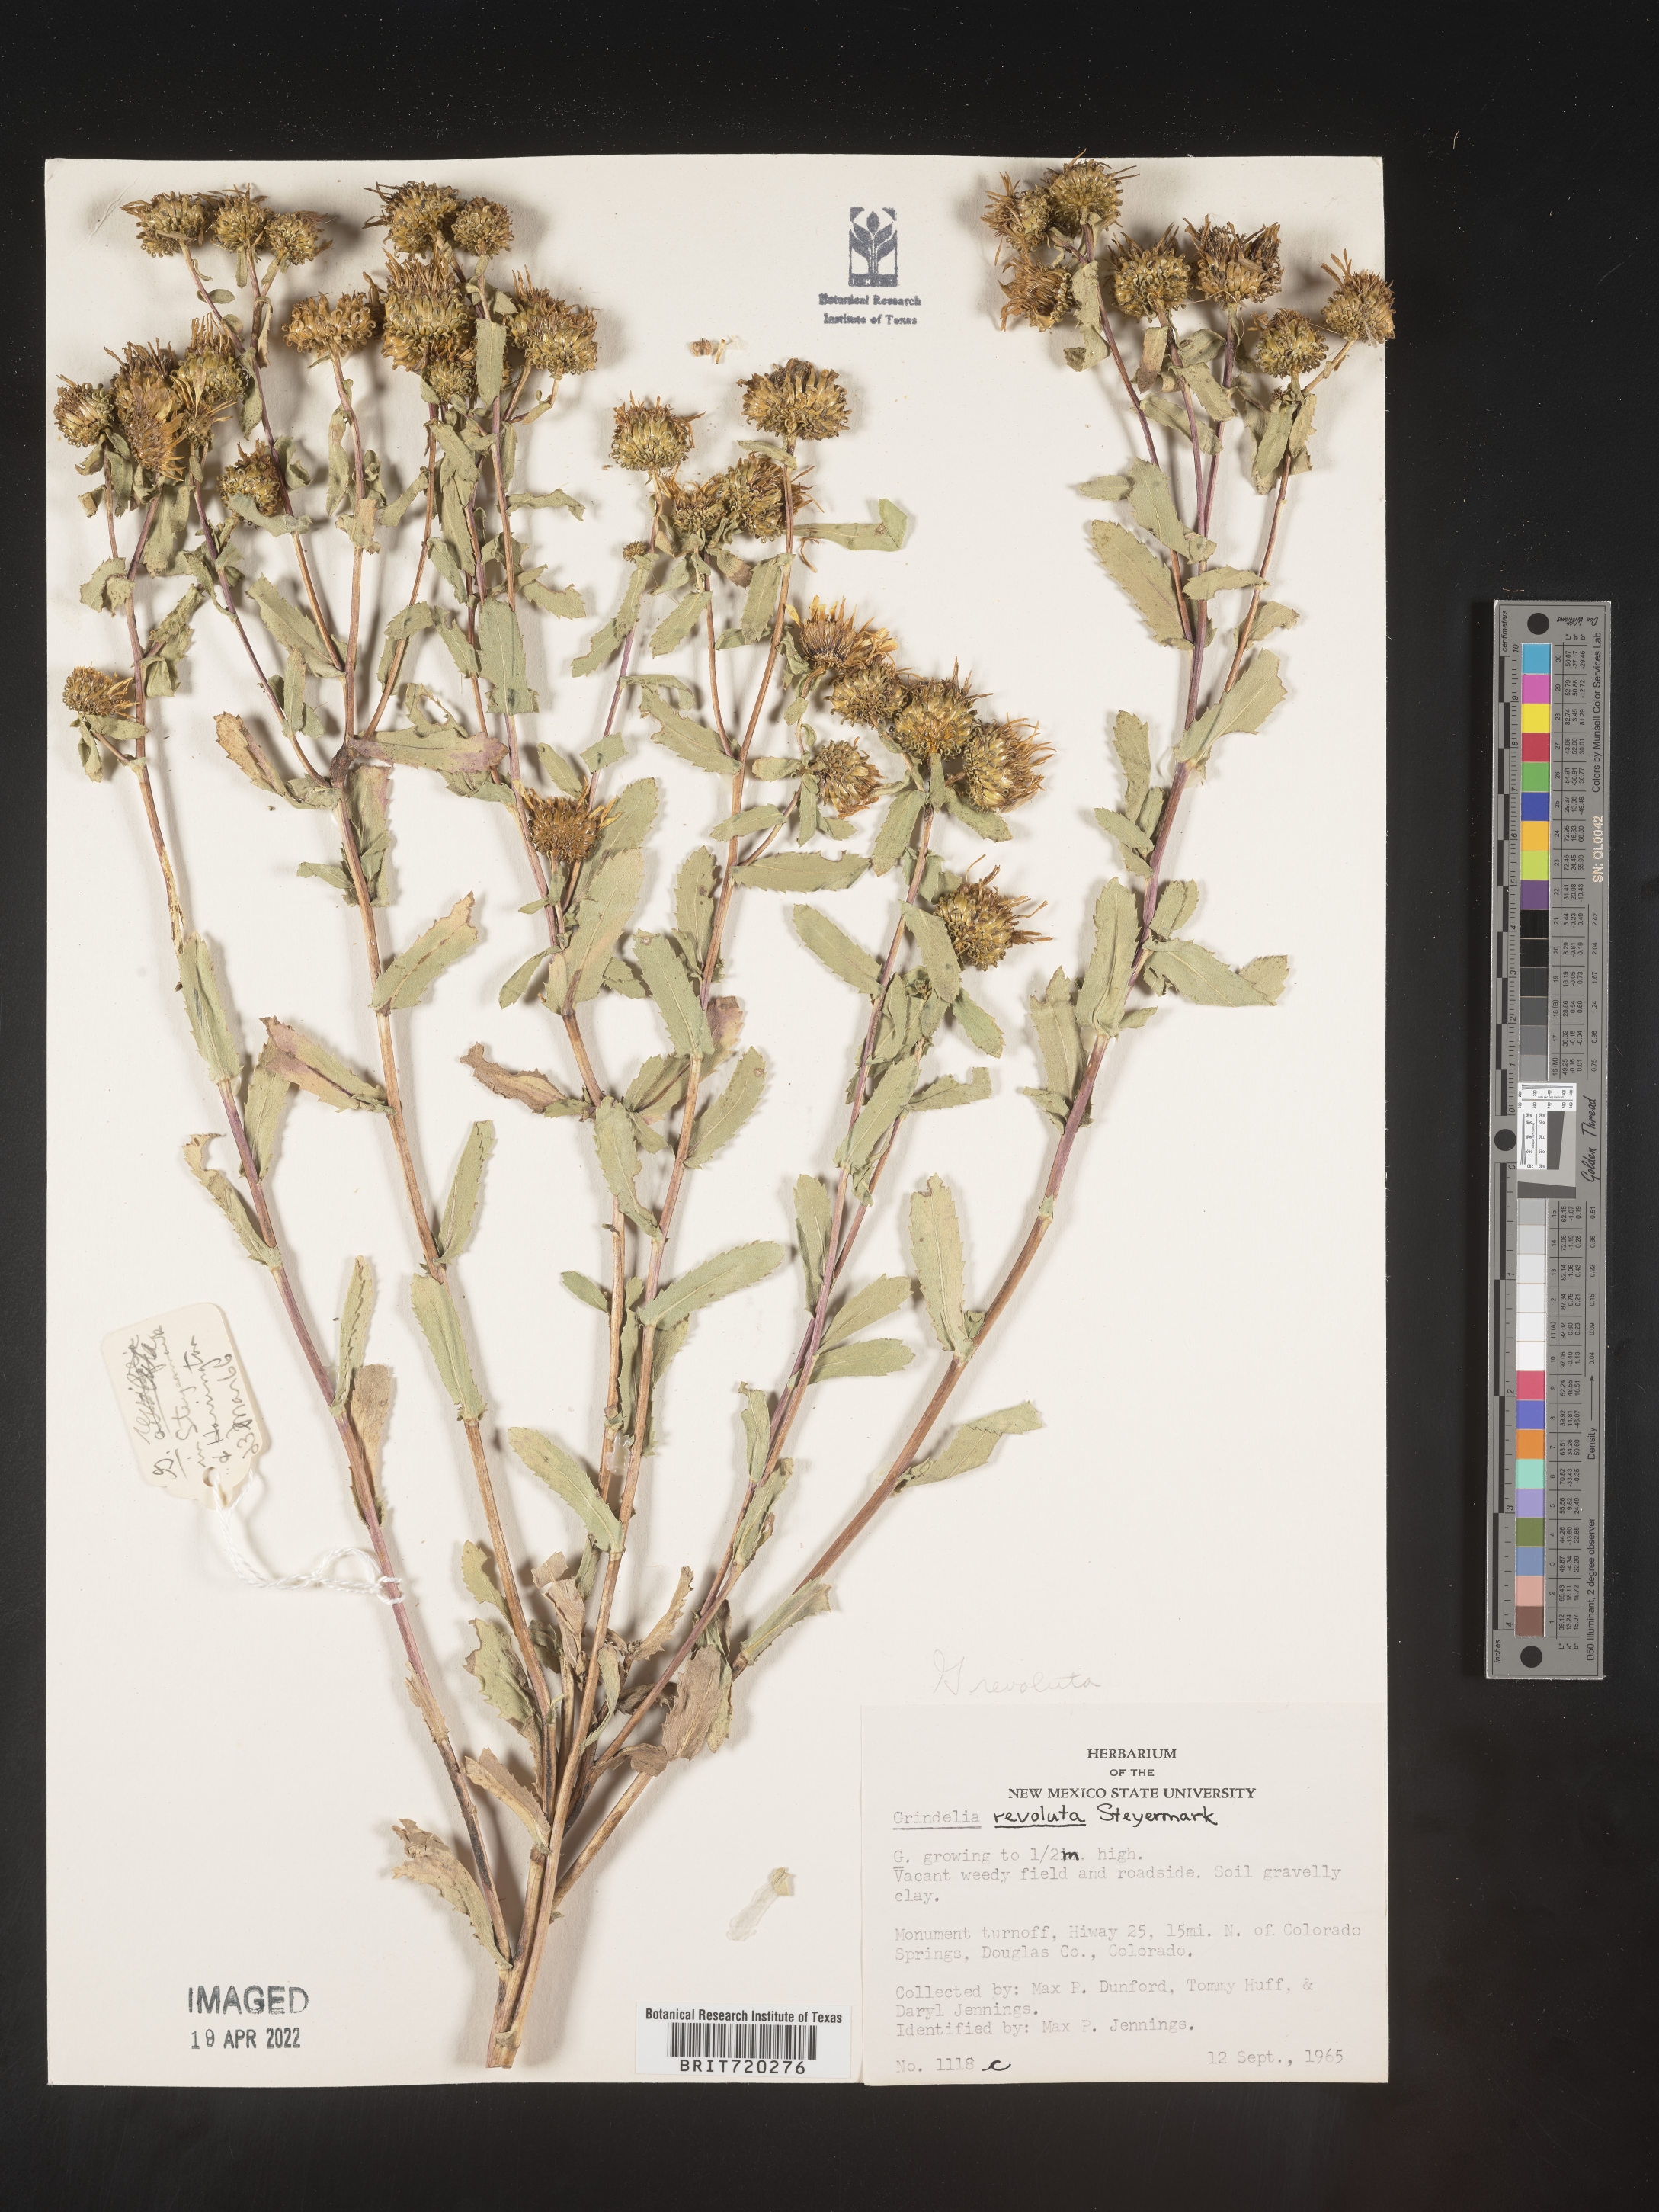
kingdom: Plantae
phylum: Tracheophyta
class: Magnoliopsida
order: Asterales
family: Asteraceae
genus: Grindelia
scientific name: Grindelia
